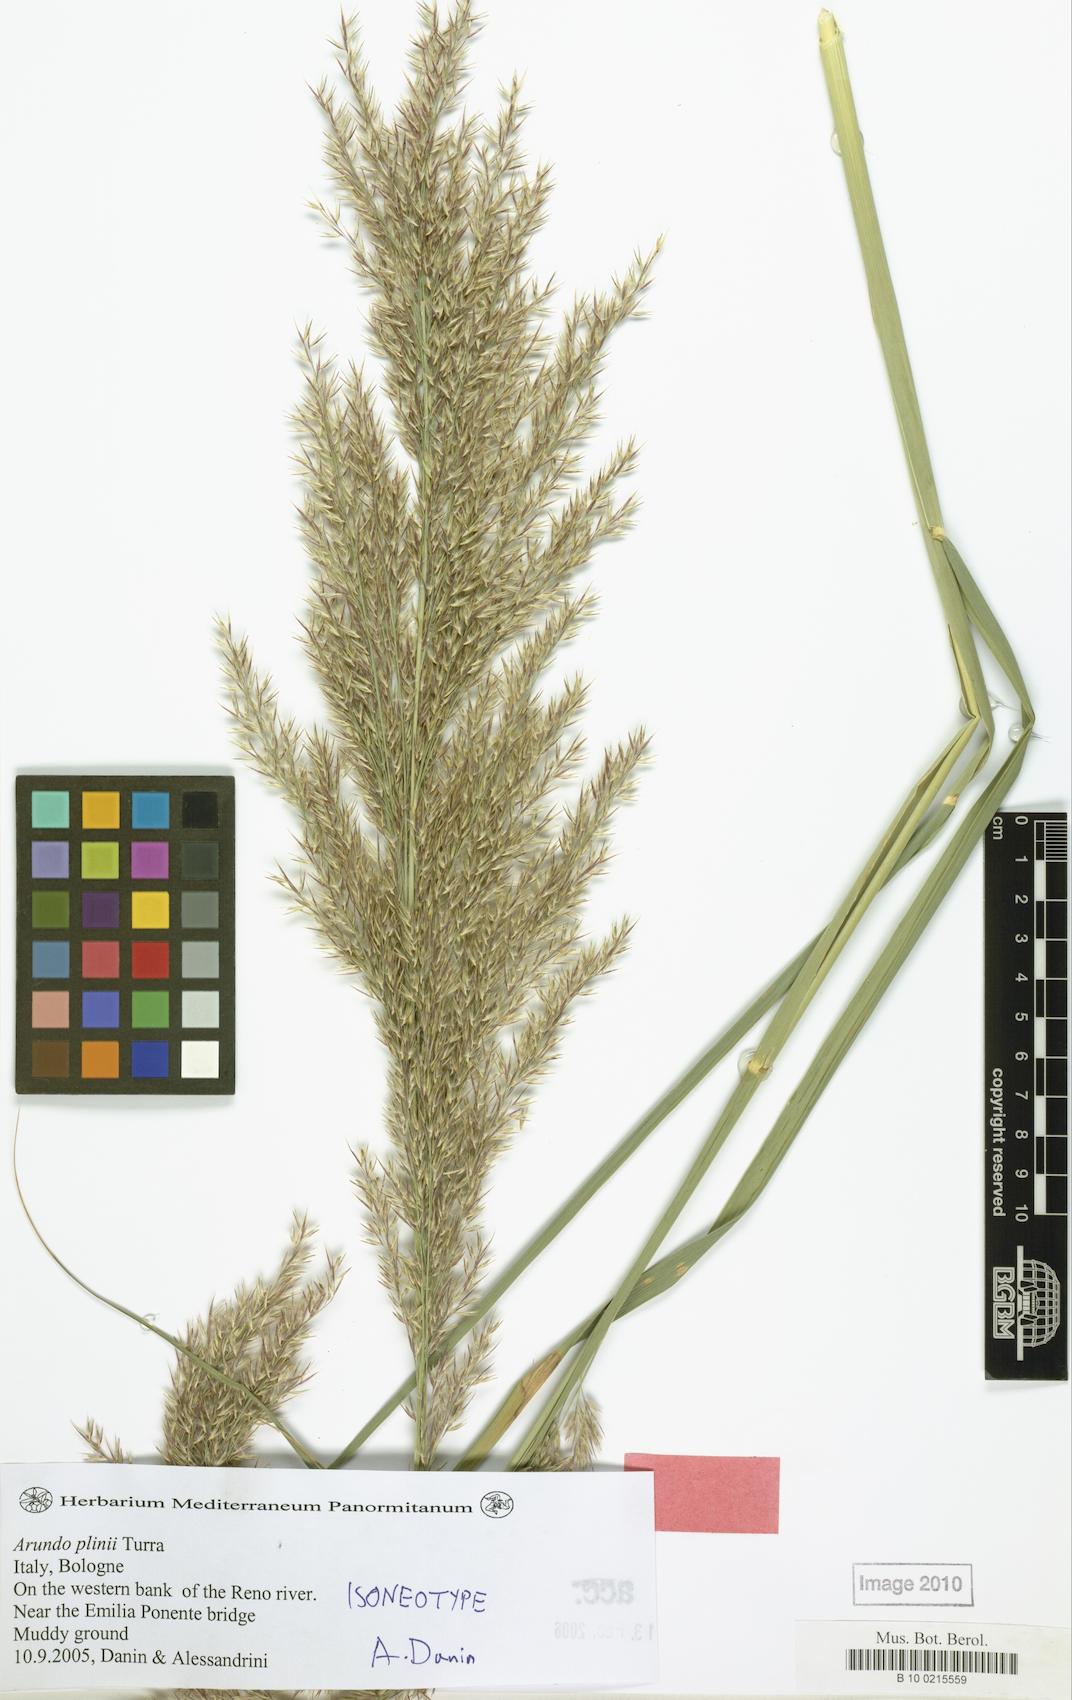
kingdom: Plantae
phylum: Tracheophyta
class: Liliopsida
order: Poales
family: Poaceae
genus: Arundo
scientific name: Arundo plinii
